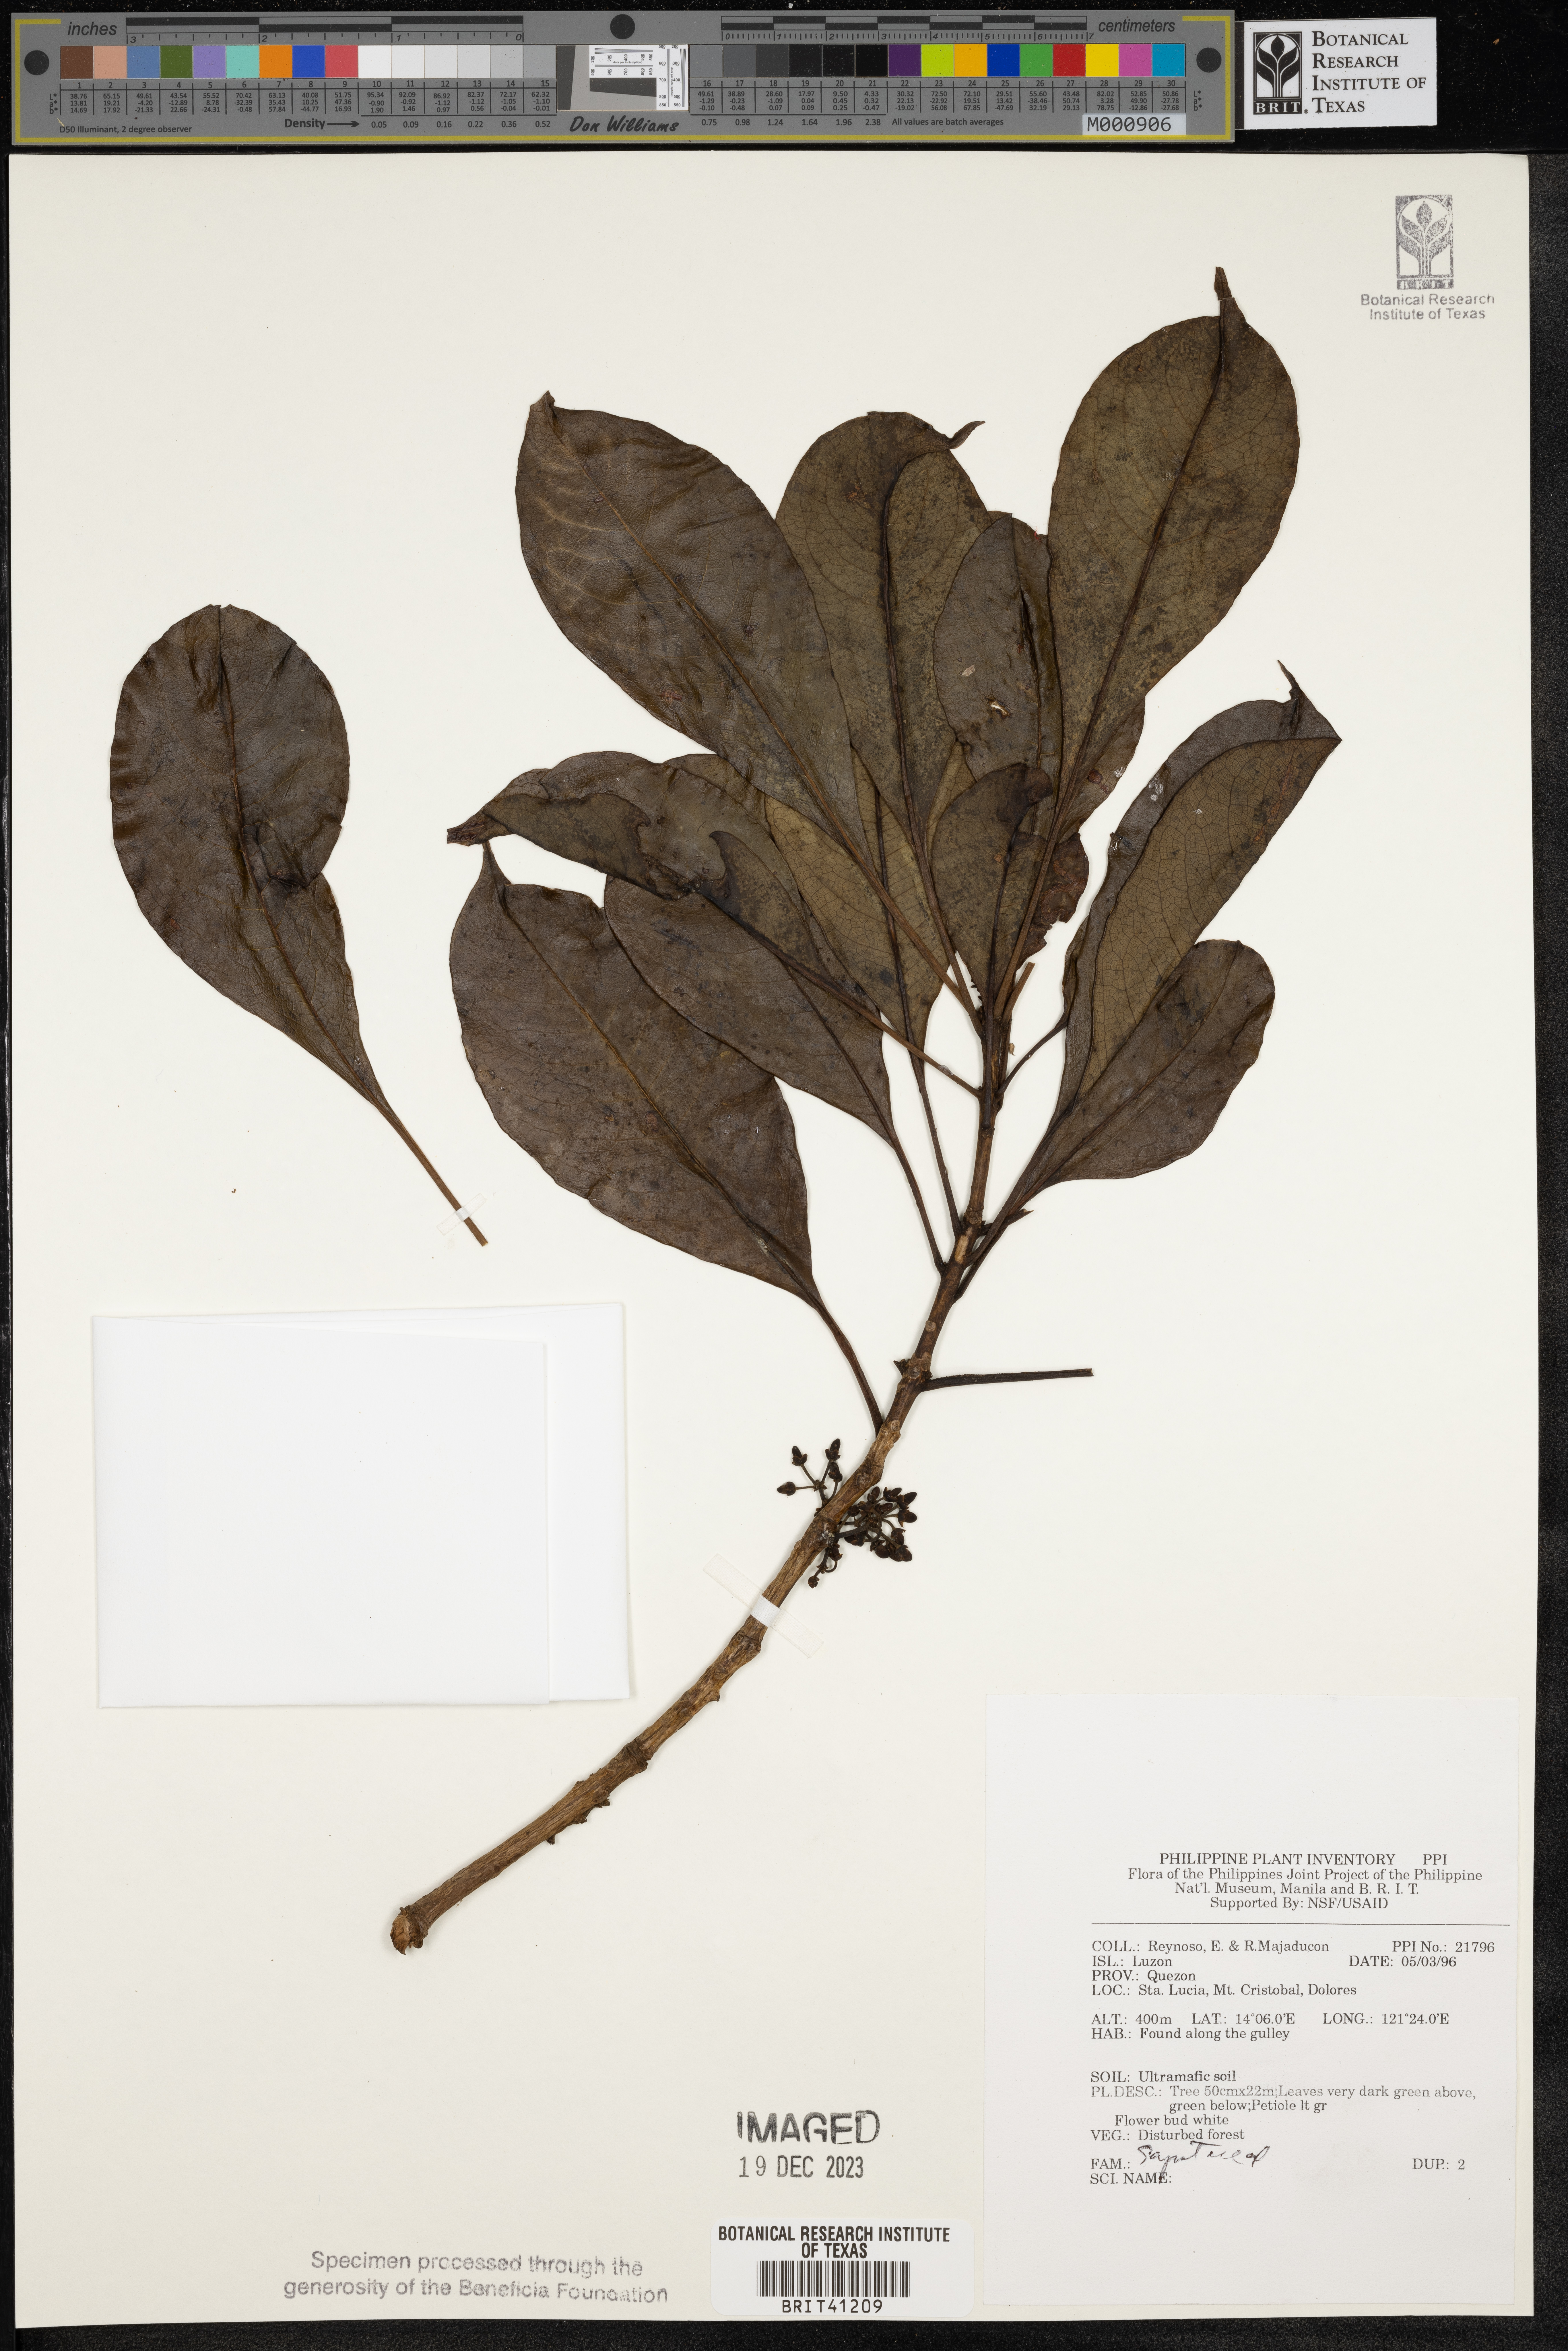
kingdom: Plantae
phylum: Tracheophyta
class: Magnoliopsida
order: Ericales
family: Sapotaceae
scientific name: Sapotaceae
